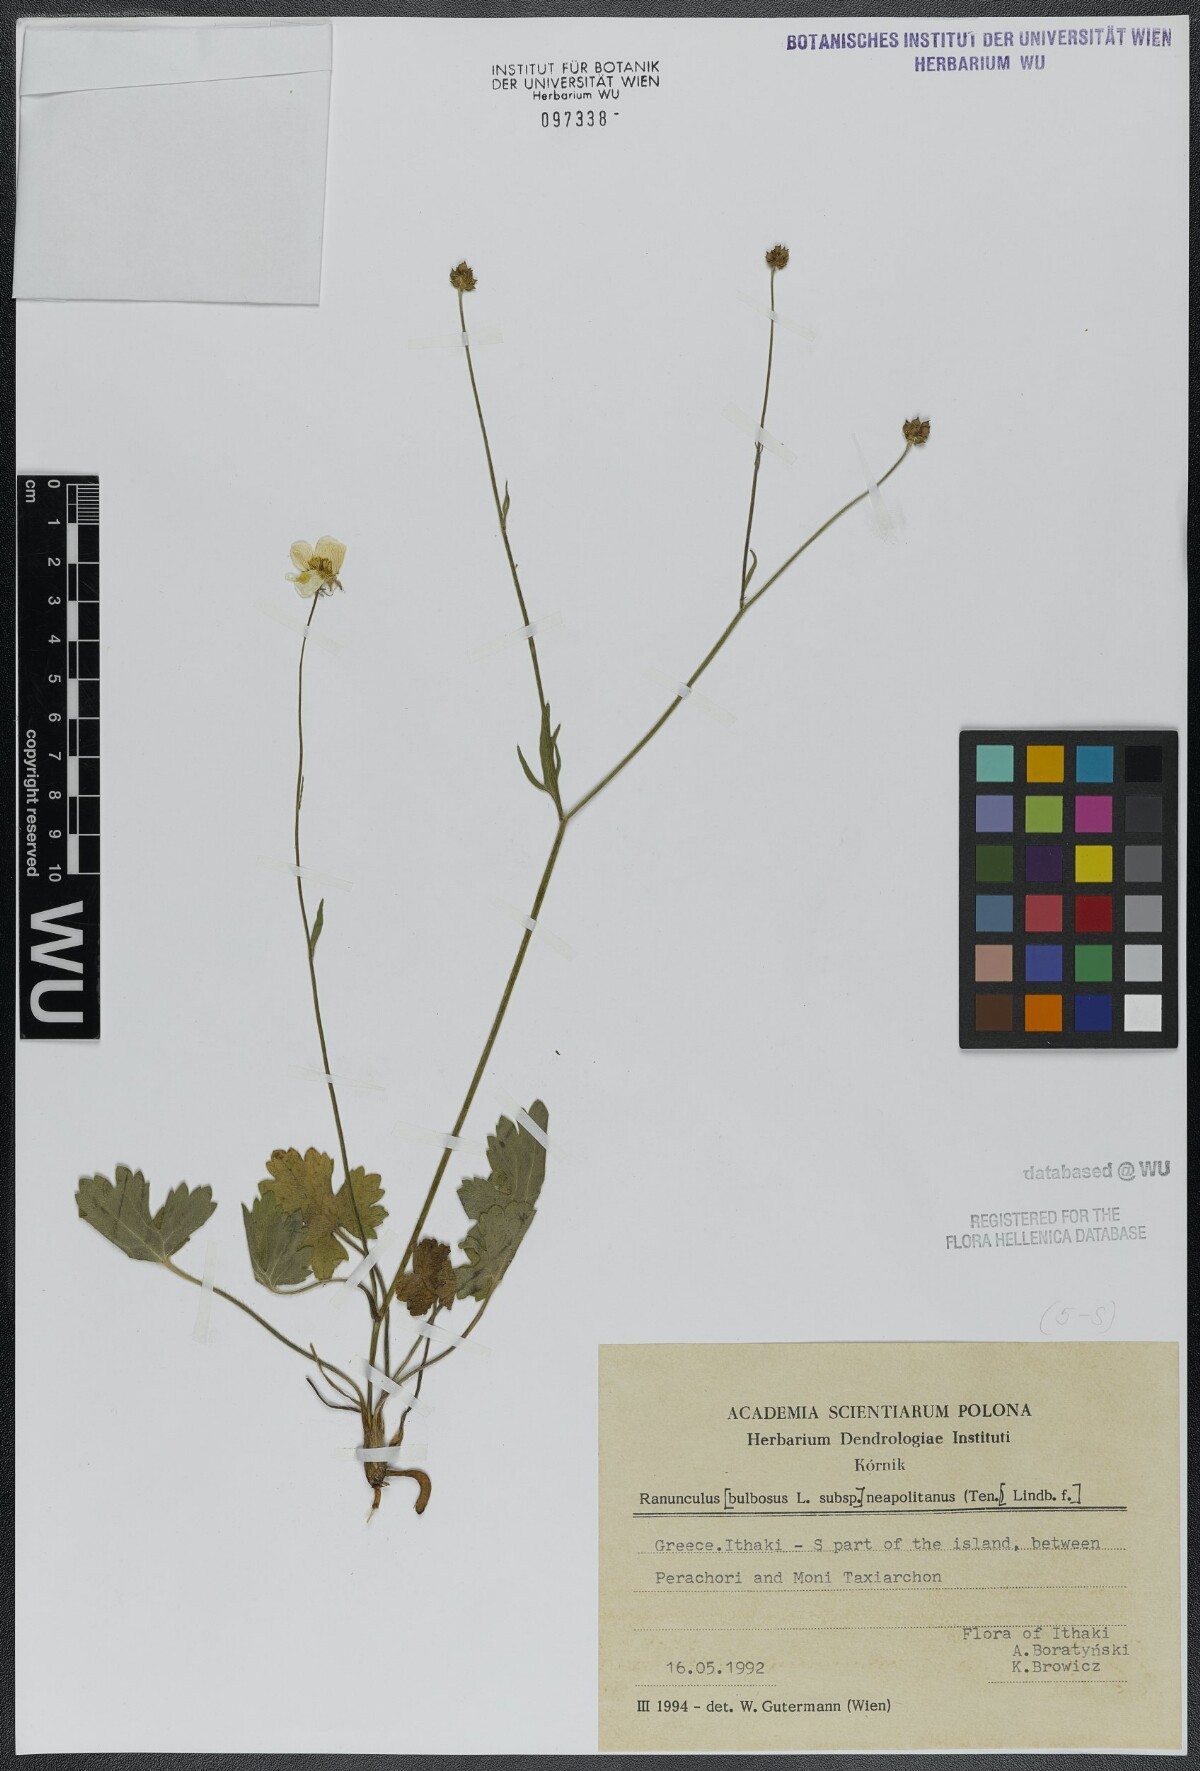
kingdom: Plantae
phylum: Tracheophyta
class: Magnoliopsida
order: Ranunculales
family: Ranunculaceae
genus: Ranunculus
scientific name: Ranunculus neapolitanus
